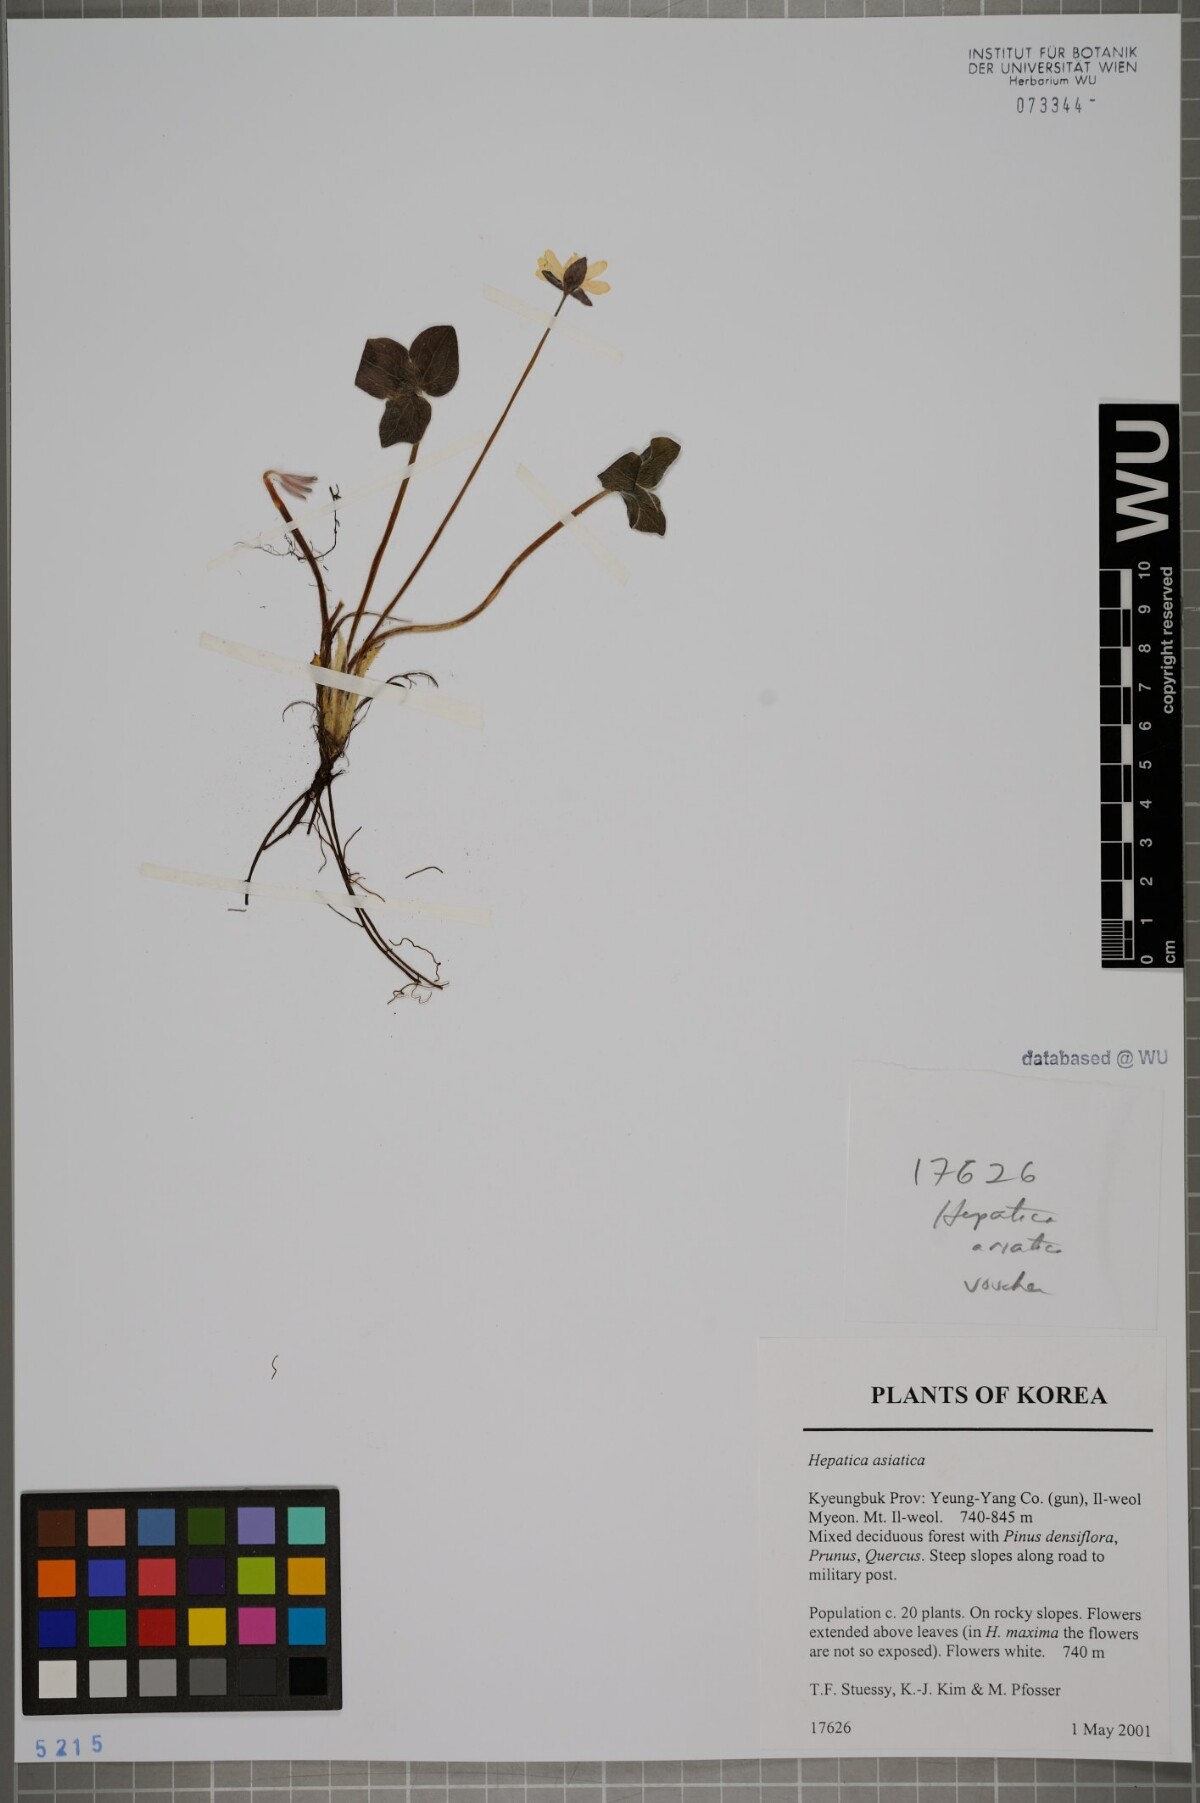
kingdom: Plantae
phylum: Tracheophyta
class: Magnoliopsida
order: Ranunculales
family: Ranunculaceae
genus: Hepatica
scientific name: Hepatica asiatica
